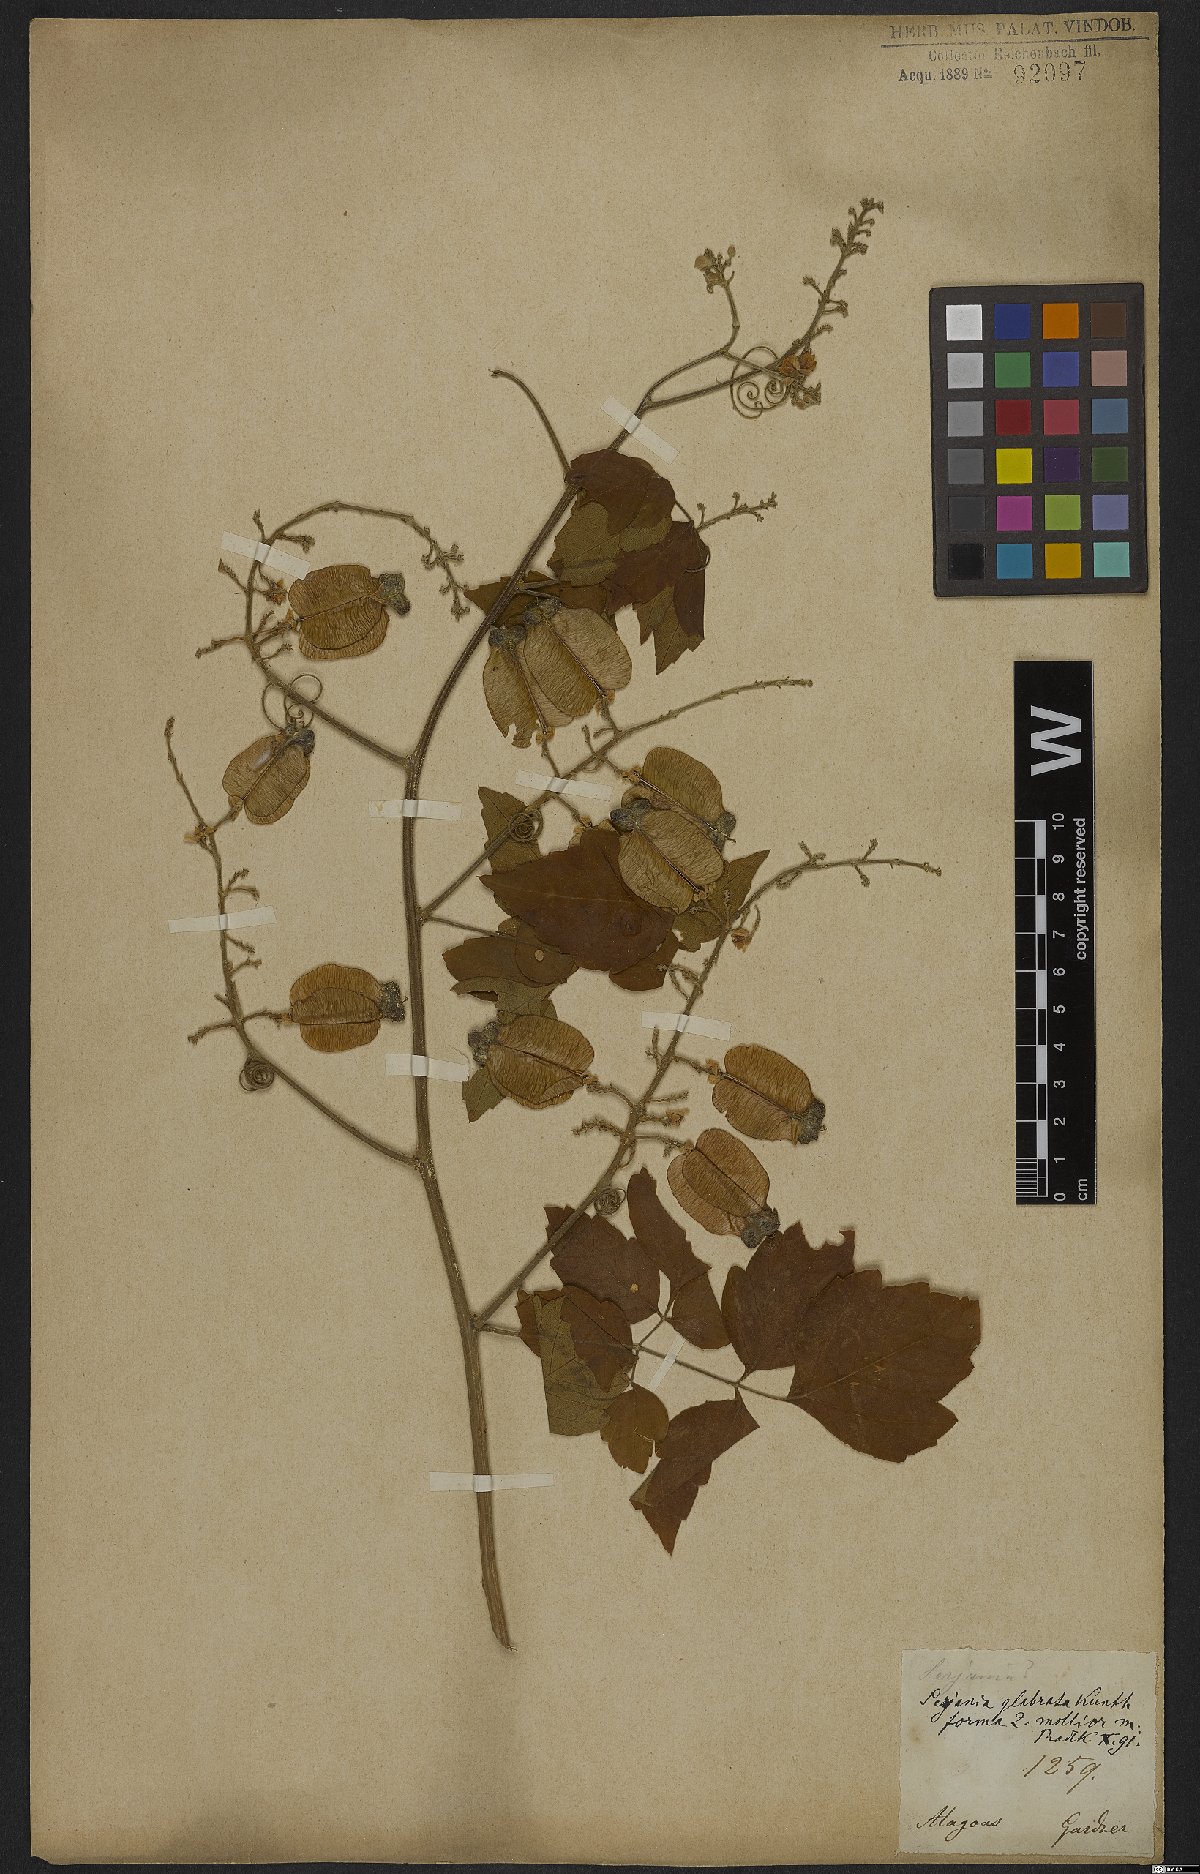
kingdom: Plantae
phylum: Tracheophyta
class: Magnoliopsida
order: Sapindales
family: Sapindaceae
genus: Serjania
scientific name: Serjania glabrata
